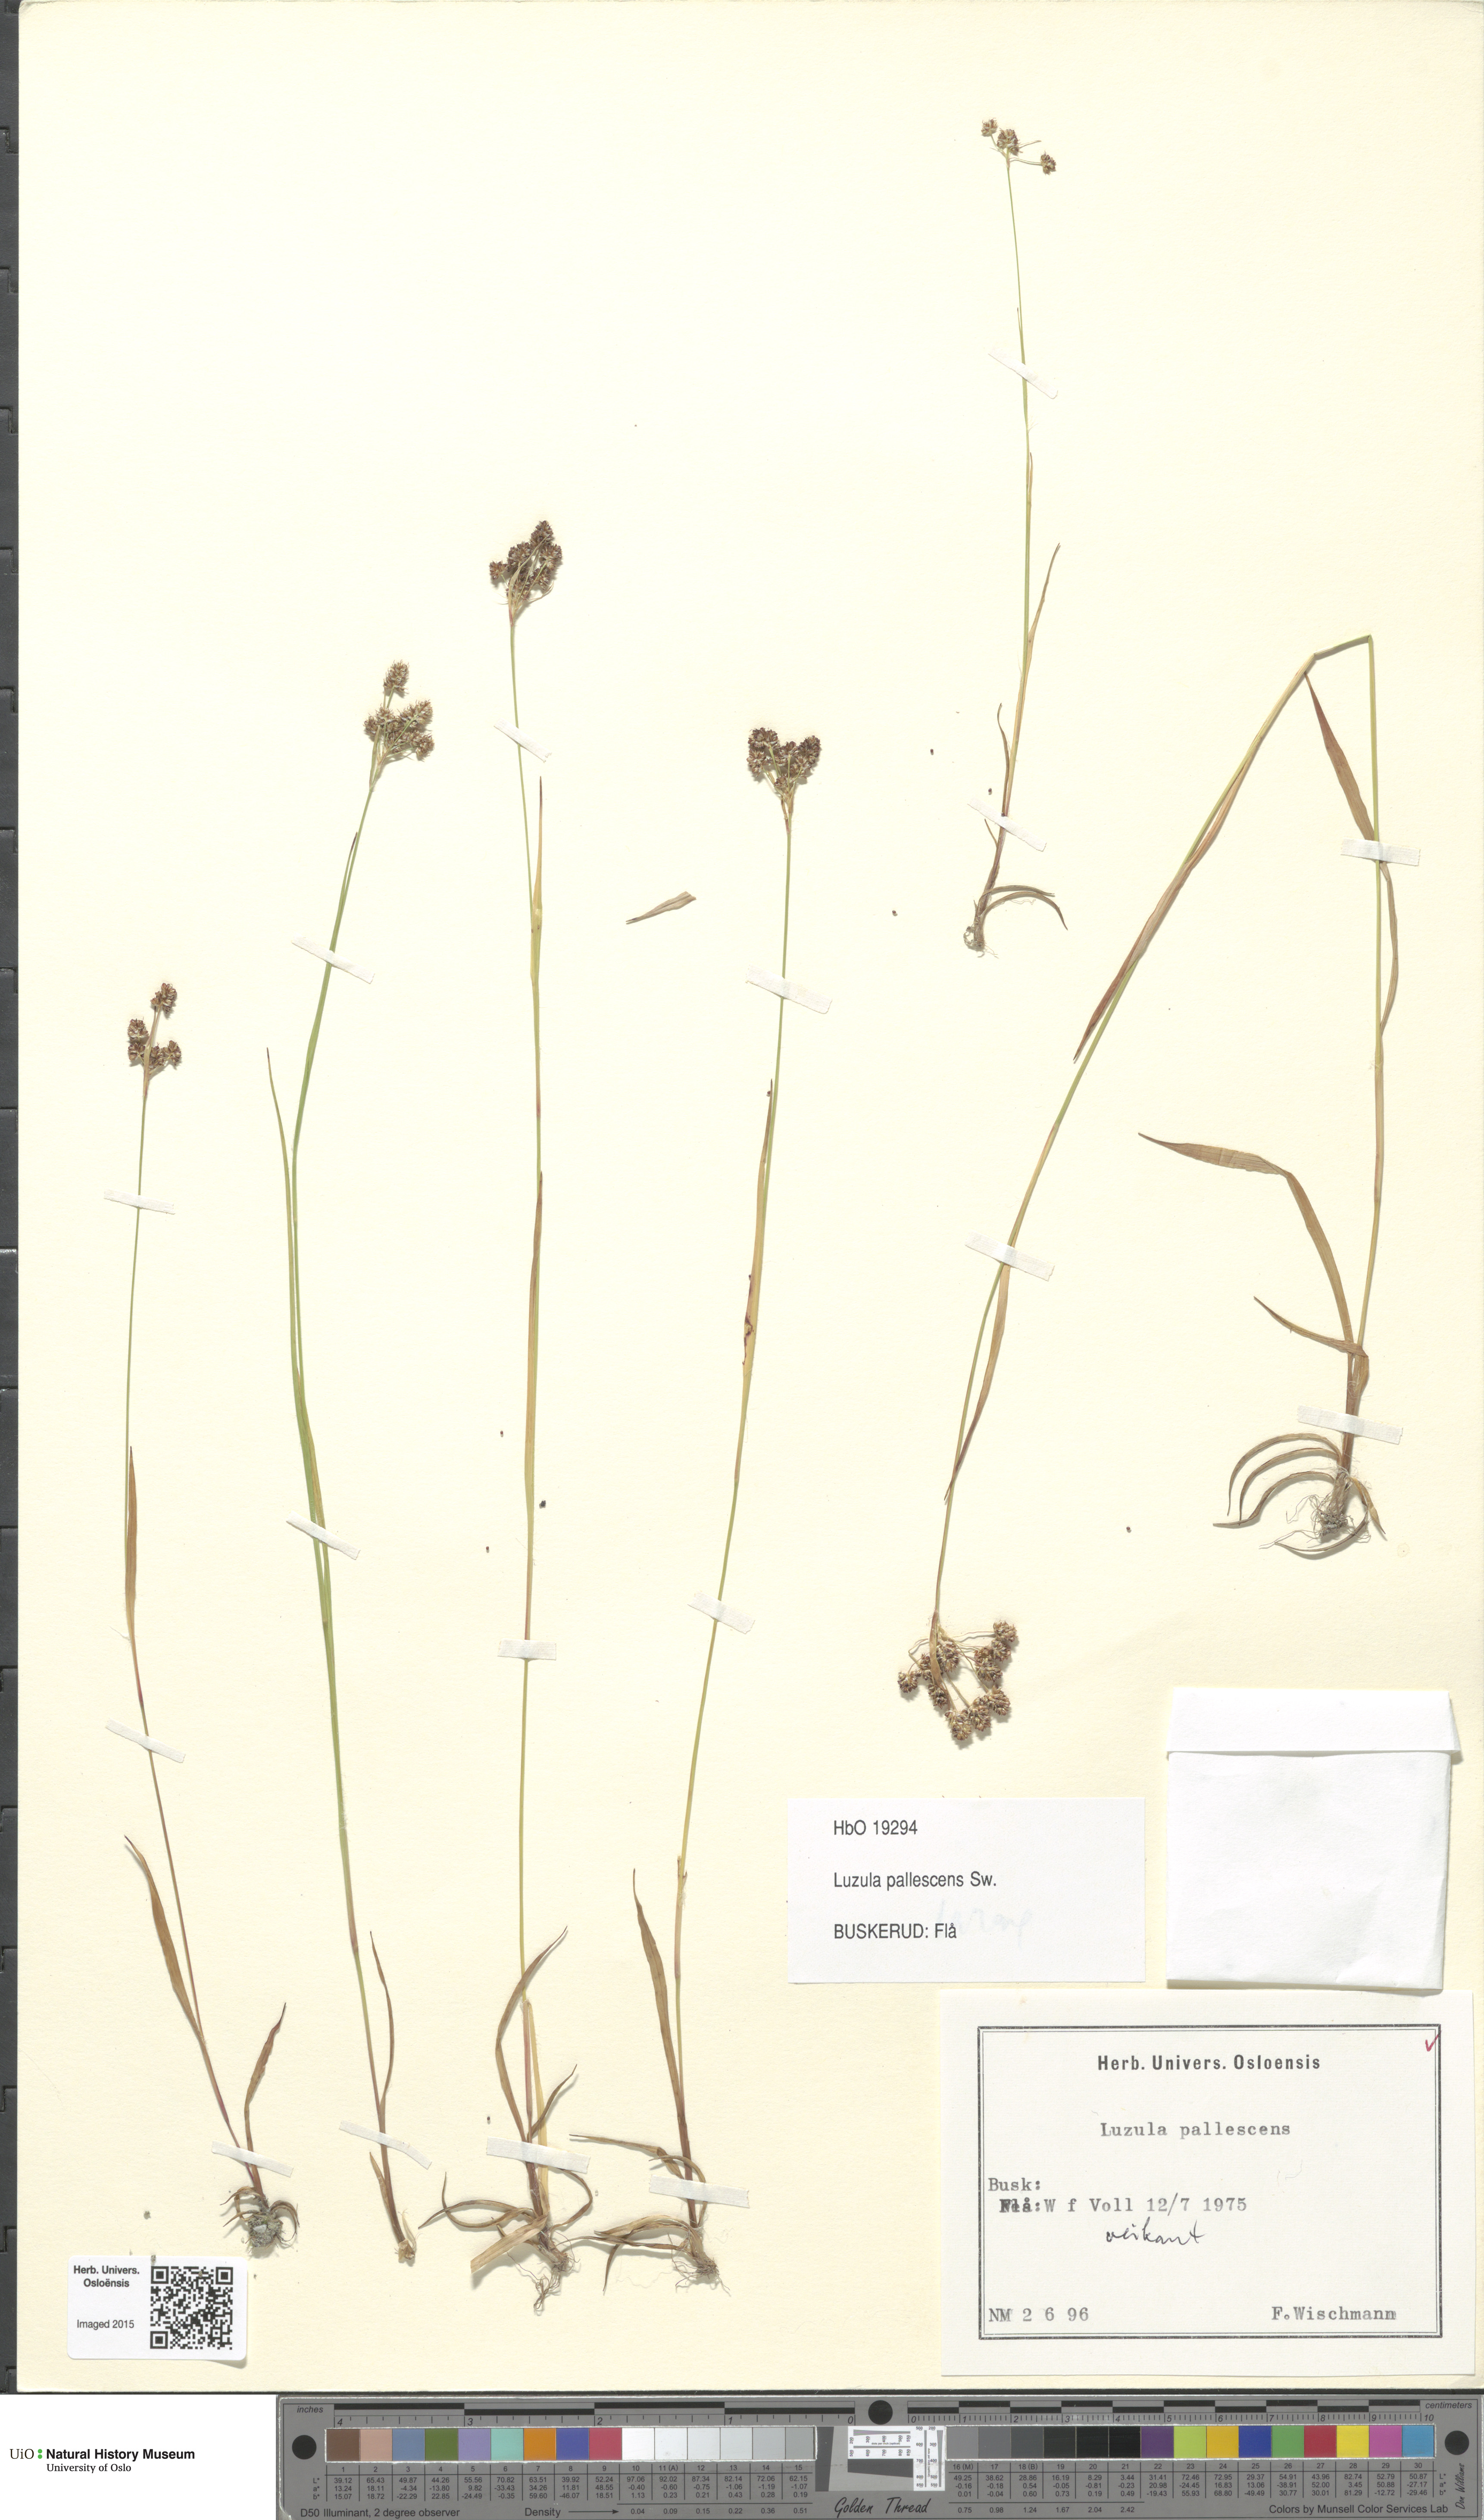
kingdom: Plantae
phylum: Tracheophyta
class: Liliopsida
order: Poales
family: Juncaceae
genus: Luzula
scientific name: Luzula pallescens
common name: Fen wood-rush
